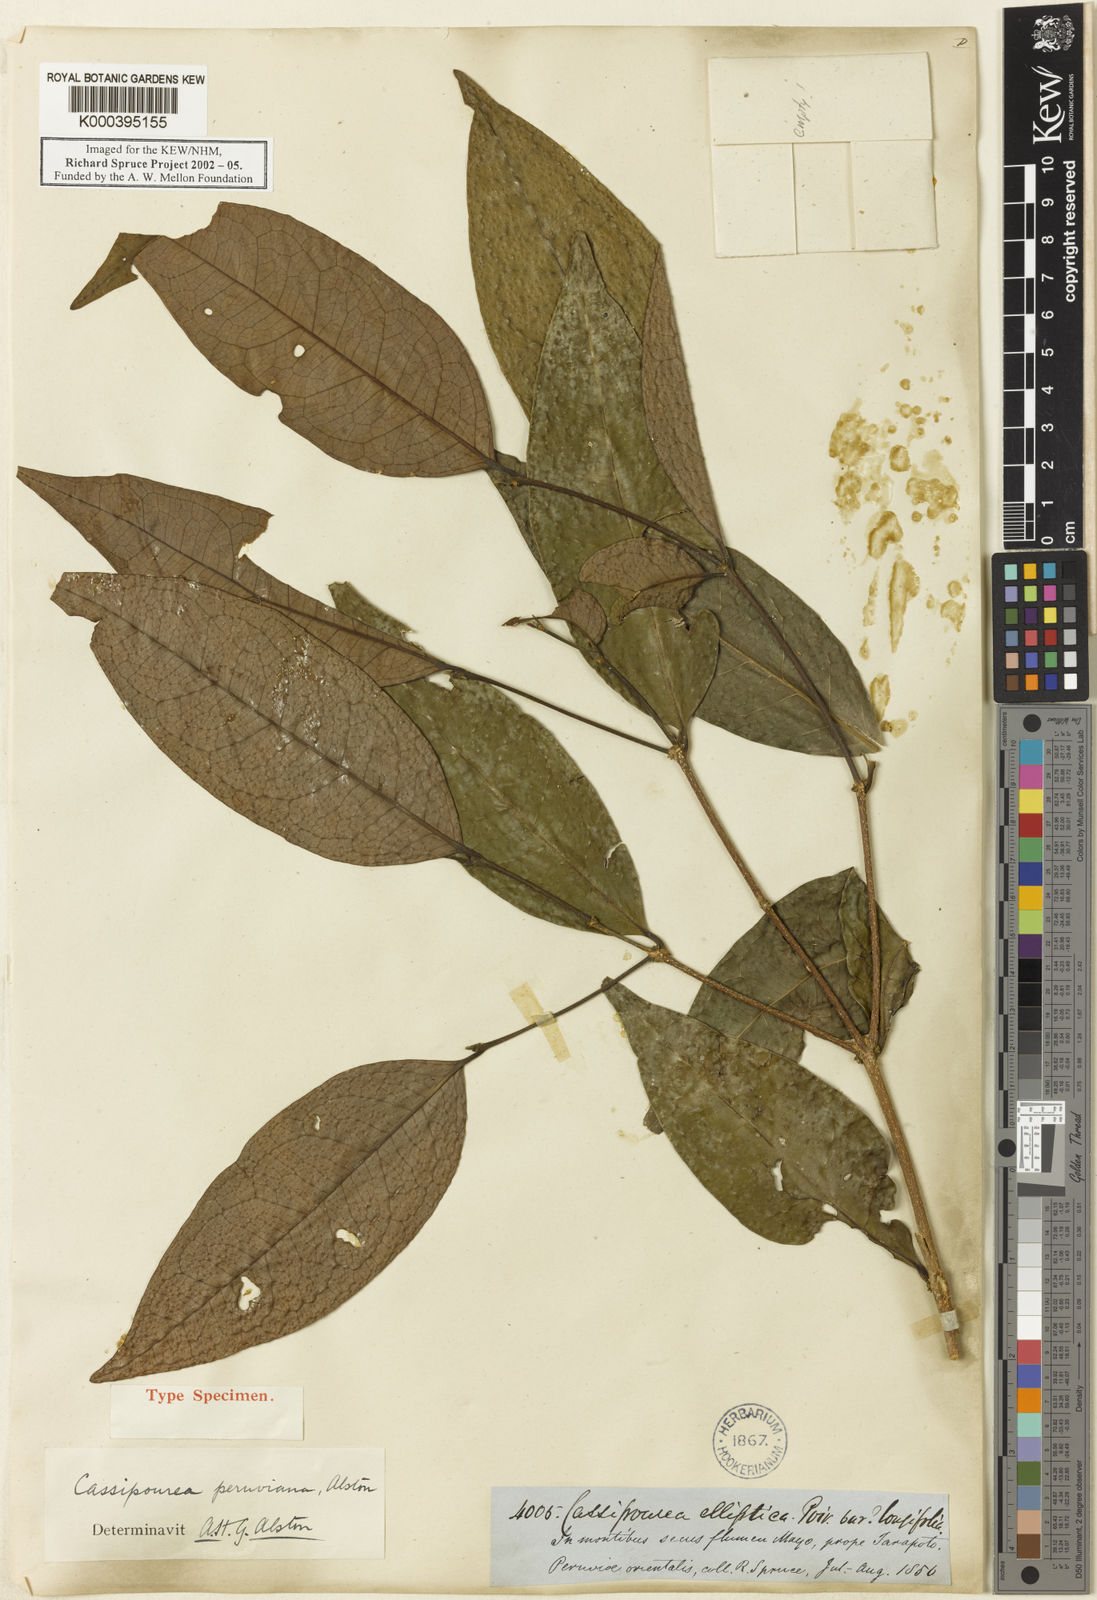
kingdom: Plantae
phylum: Tracheophyta
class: Magnoliopsida
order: Malpighiales
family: Rhizophoraceae
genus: Cassipourea
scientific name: Cassipourea peruviana
